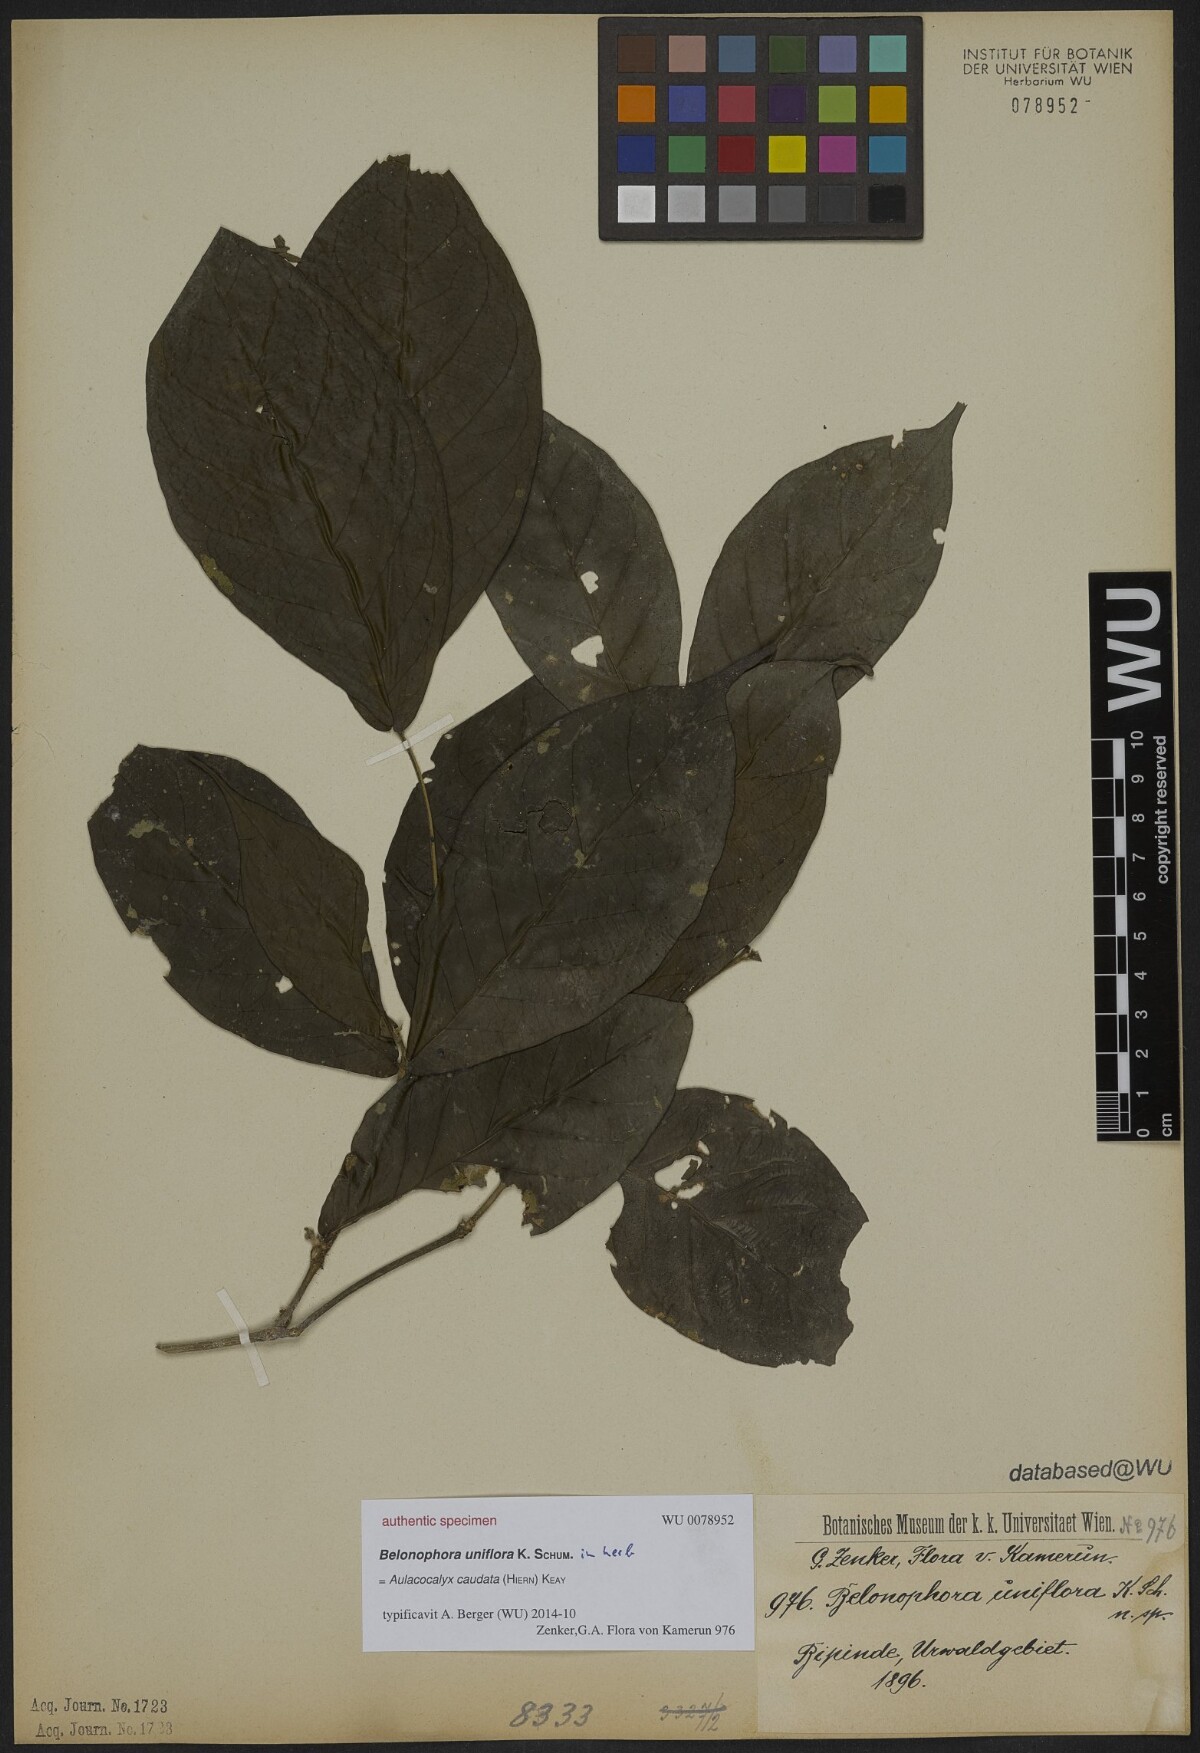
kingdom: Plantae
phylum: Tracheophyta
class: Magnoliopsida
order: Gentianales
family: Rubiaceae
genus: Belonophora
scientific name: Belonophora
